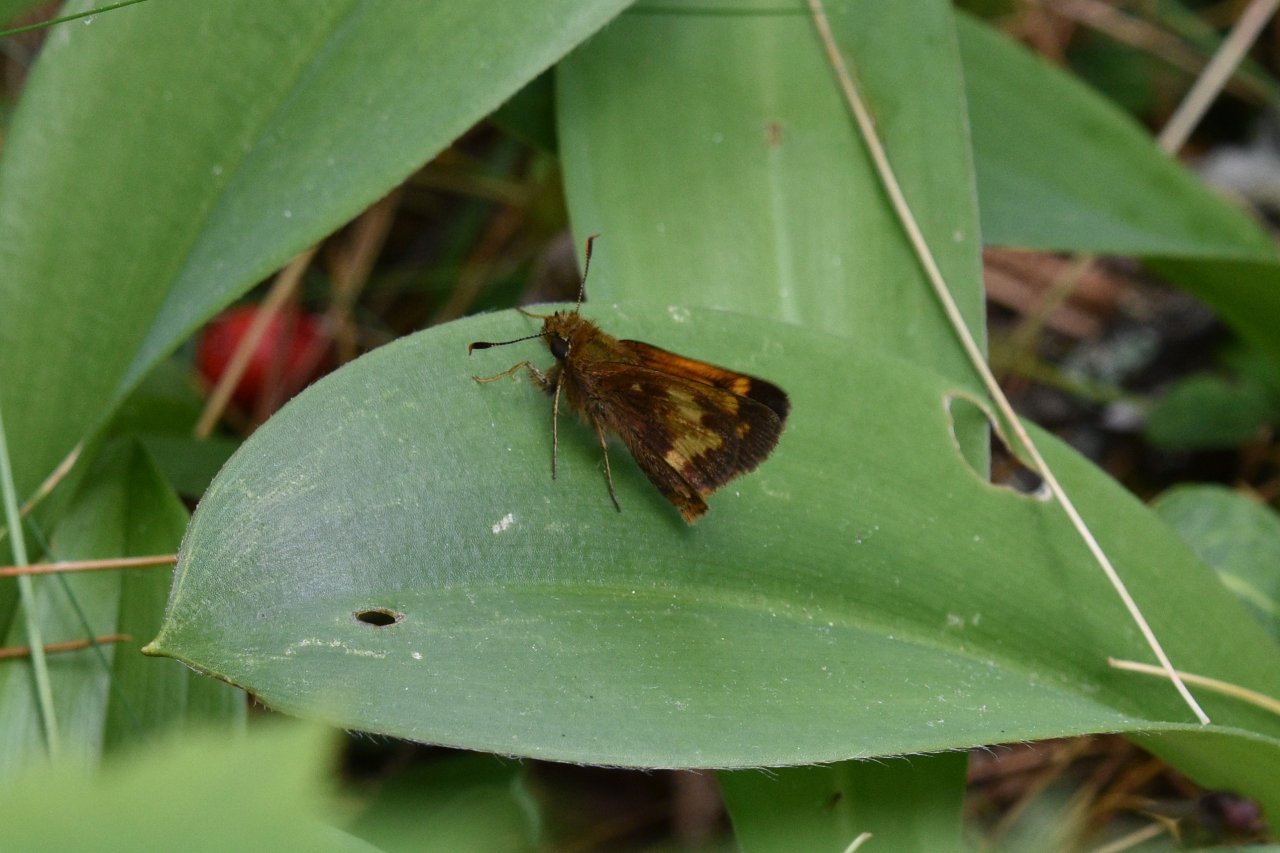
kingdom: Animalia
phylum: Arthropoda
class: Insecta
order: Lepidoptera
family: Hesperiidae
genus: Lon
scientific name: Lon hobomok
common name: Hobomok Skipper
